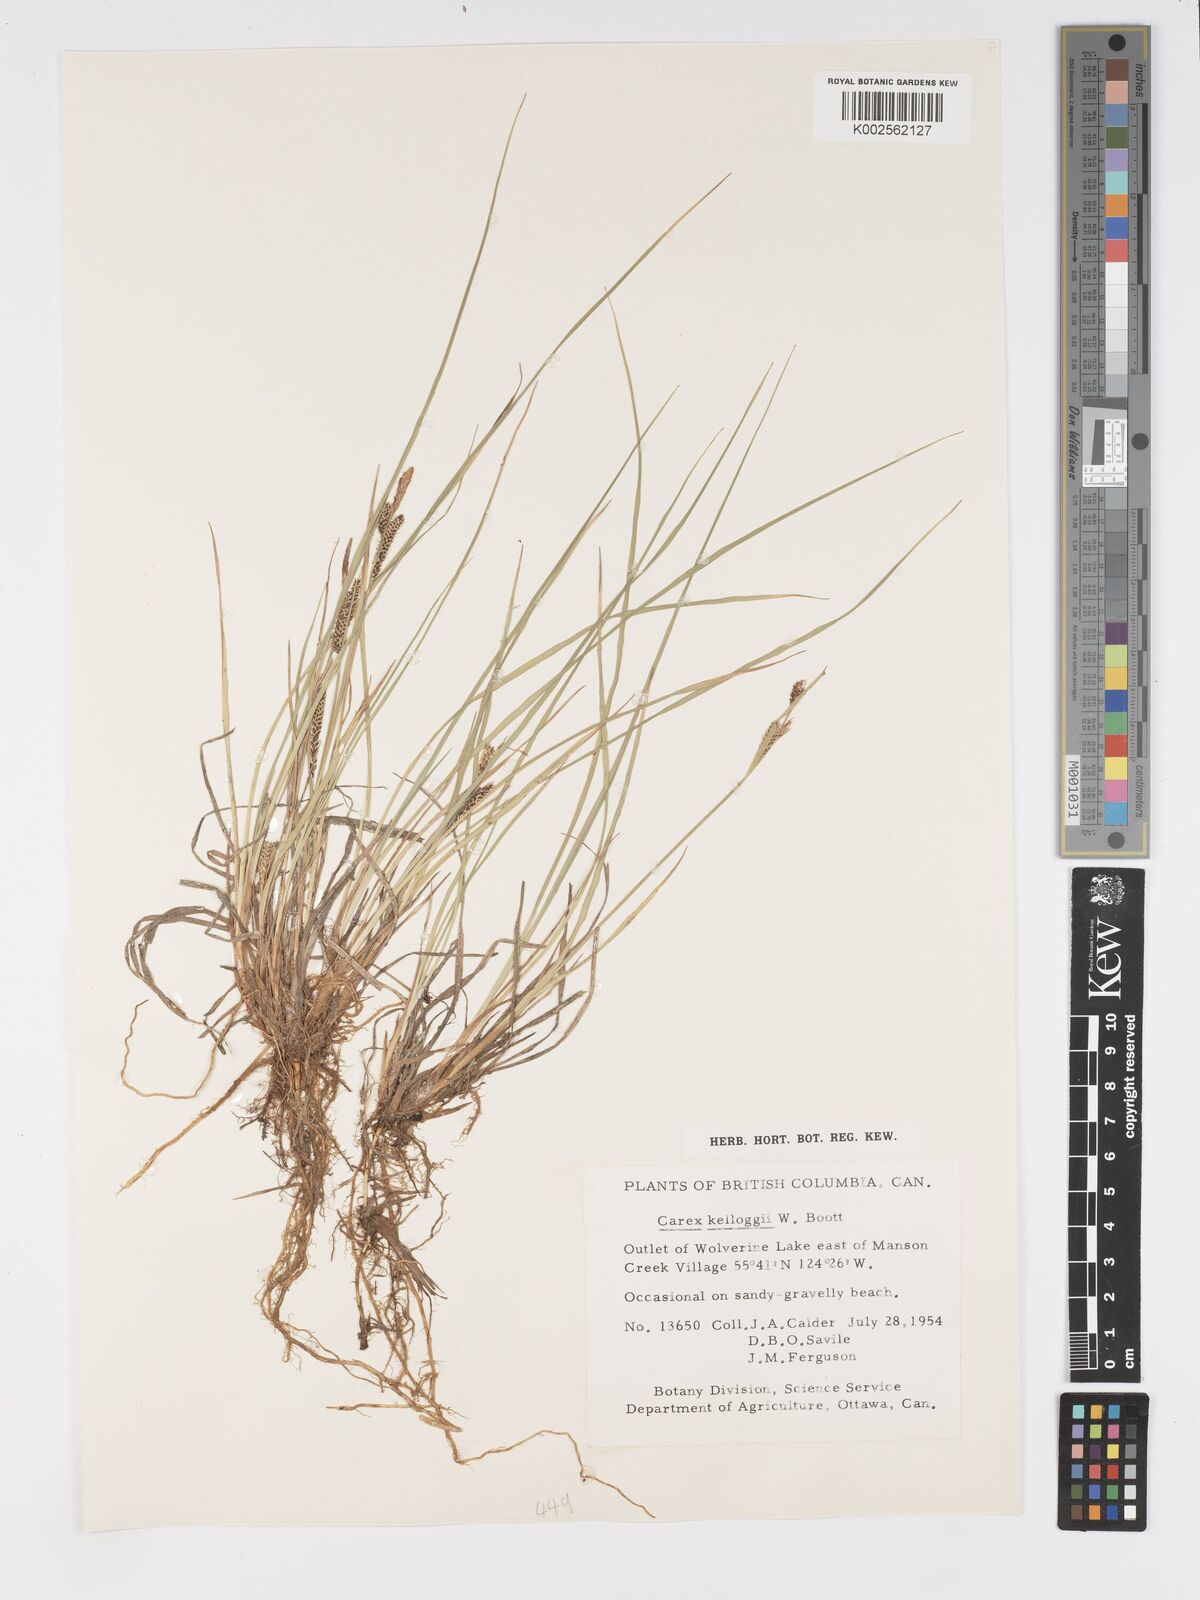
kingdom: Plantae
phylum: Tracheophyta
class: Liliopsida
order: Poales
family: Cyperaceae
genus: Carex
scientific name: Carex kelloggii
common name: Kellogg's sedge
